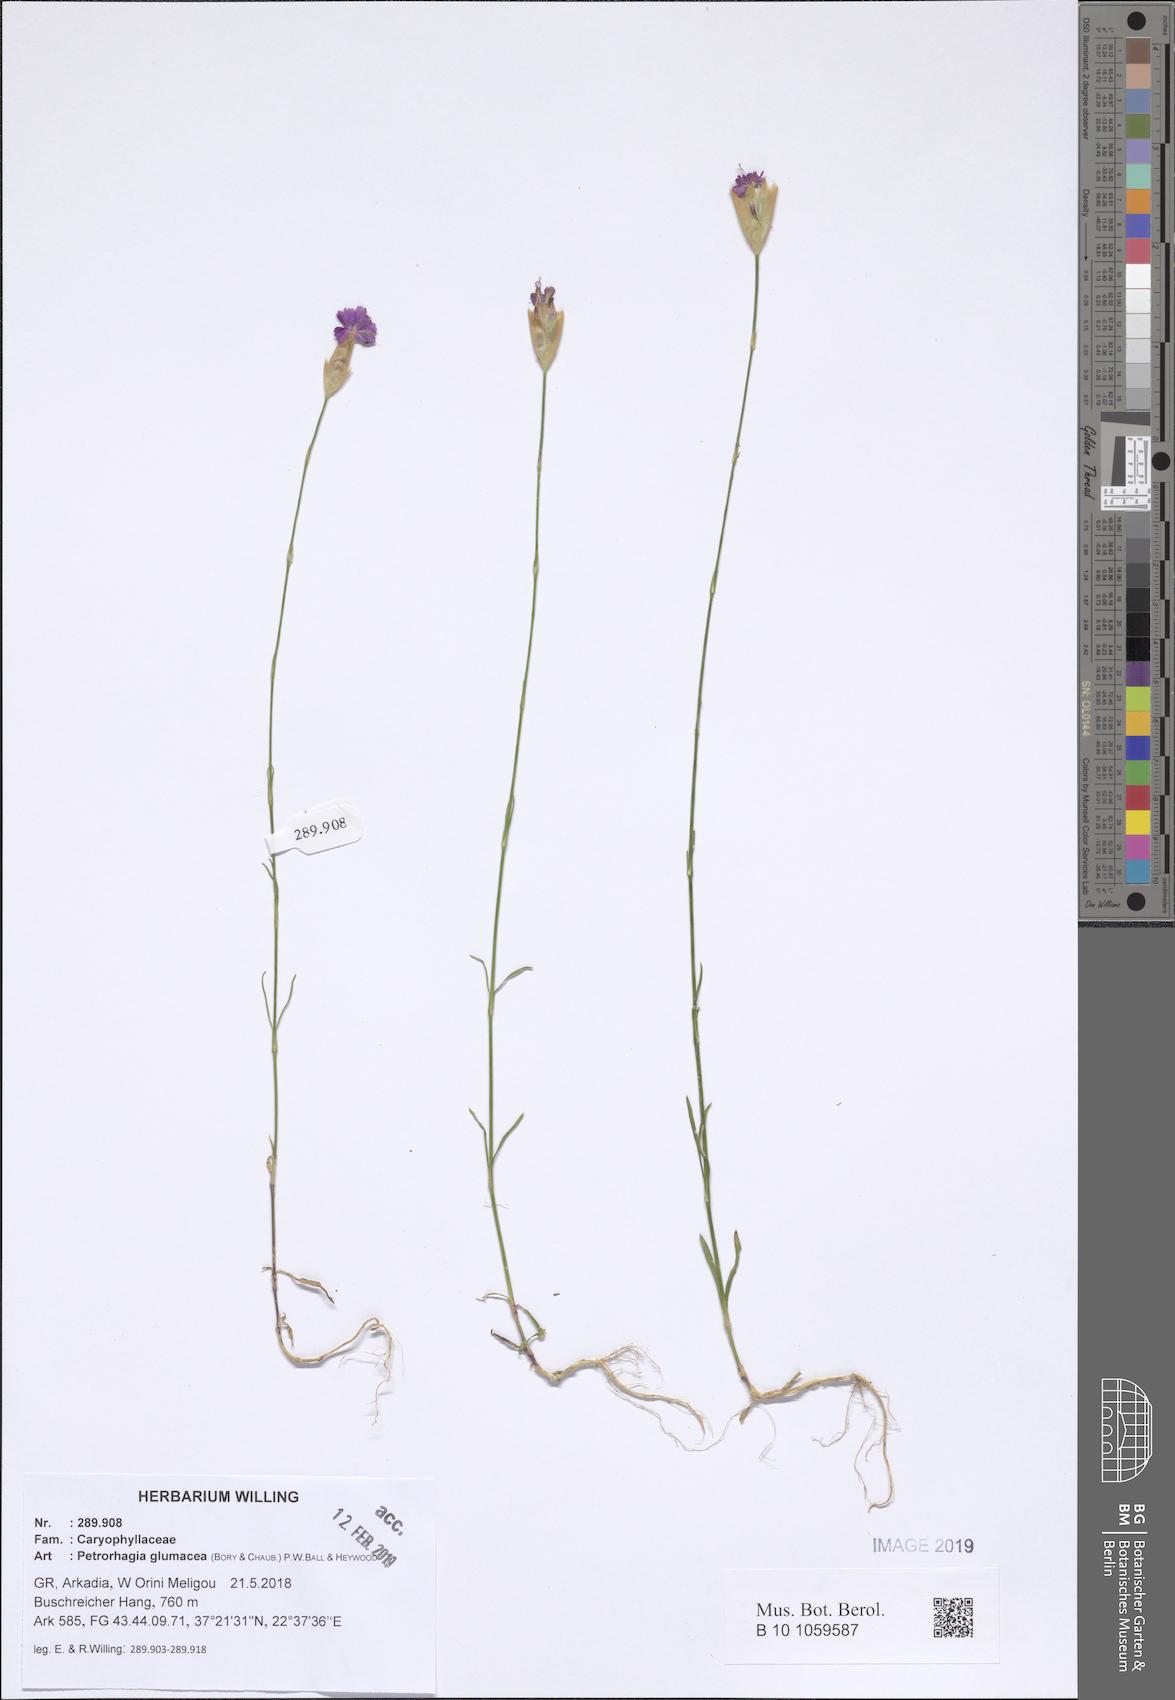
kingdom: Plantae
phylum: Tracheophyta
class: Magnoliopsida
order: Caryophyllales
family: Caryophyllaceae
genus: Petrorhagia
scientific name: Petrorhagia glumacea
